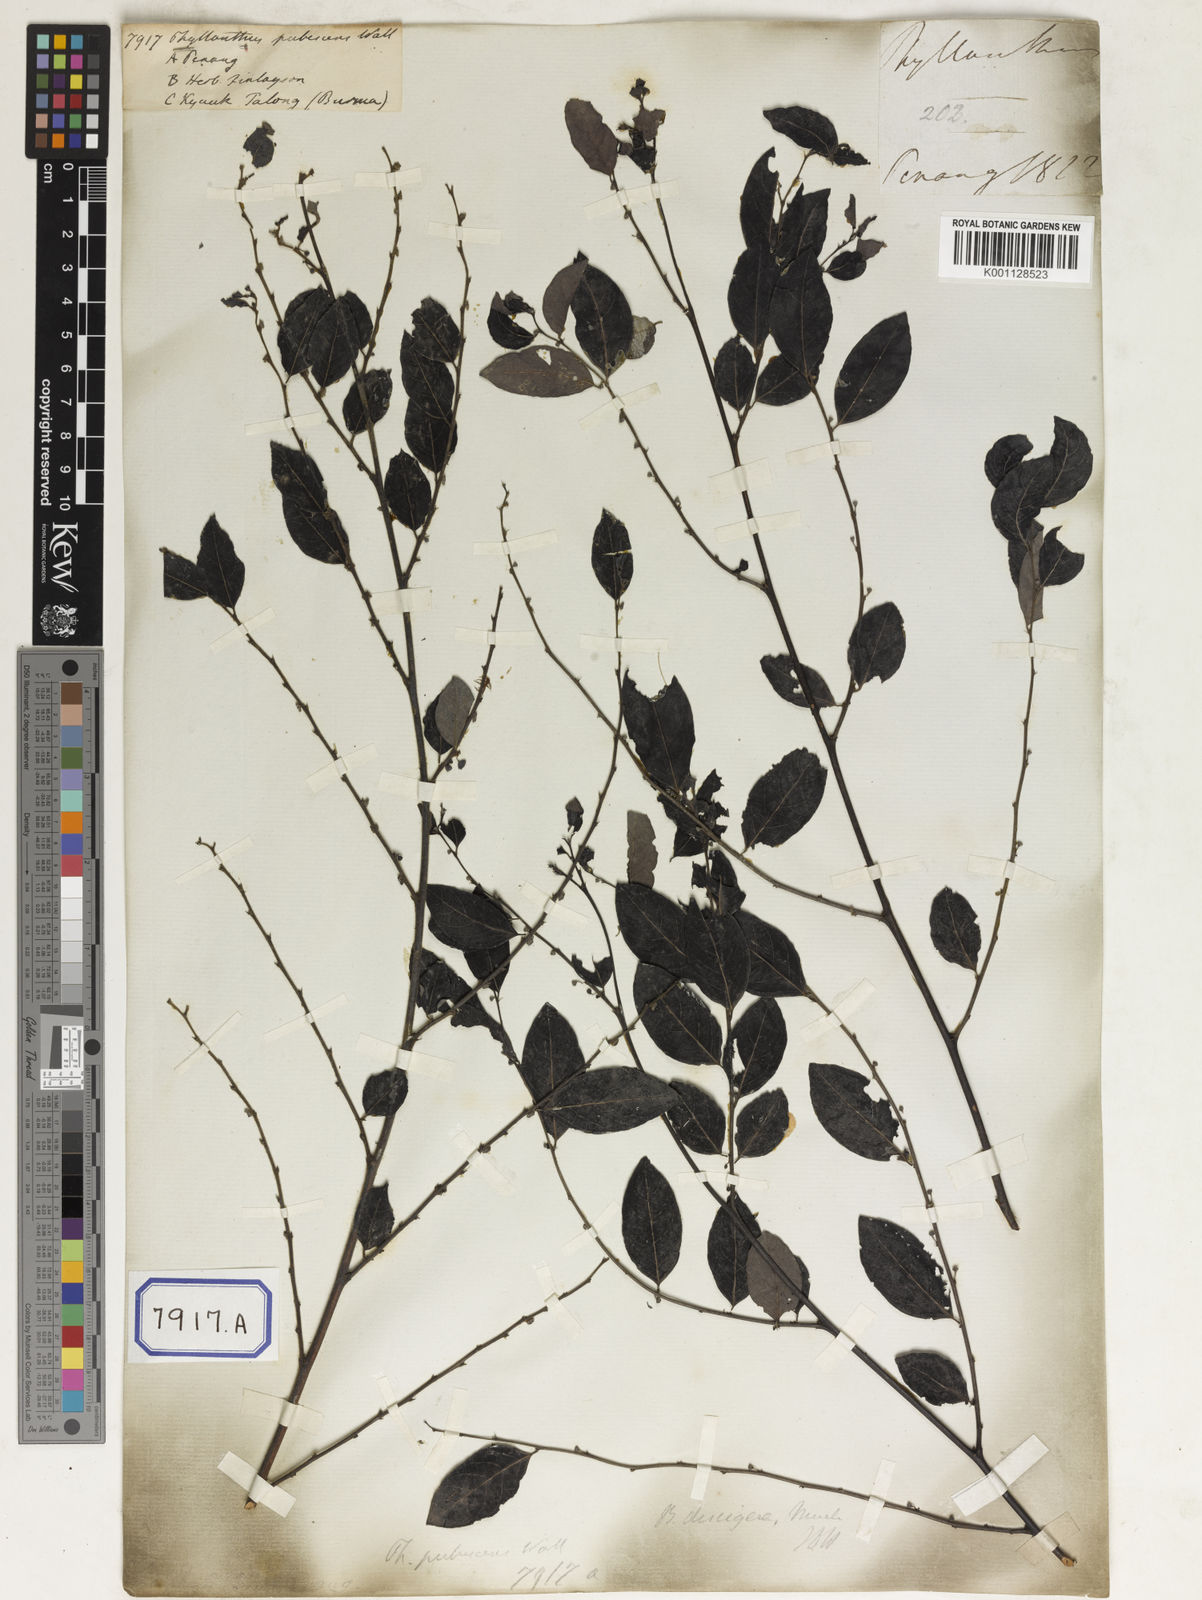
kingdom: Plantae
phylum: Tracheophyta
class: Magnoliopsida
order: Malpighiales
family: Phyllanthaceae
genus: Phyllanthus
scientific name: Phyllanthus
